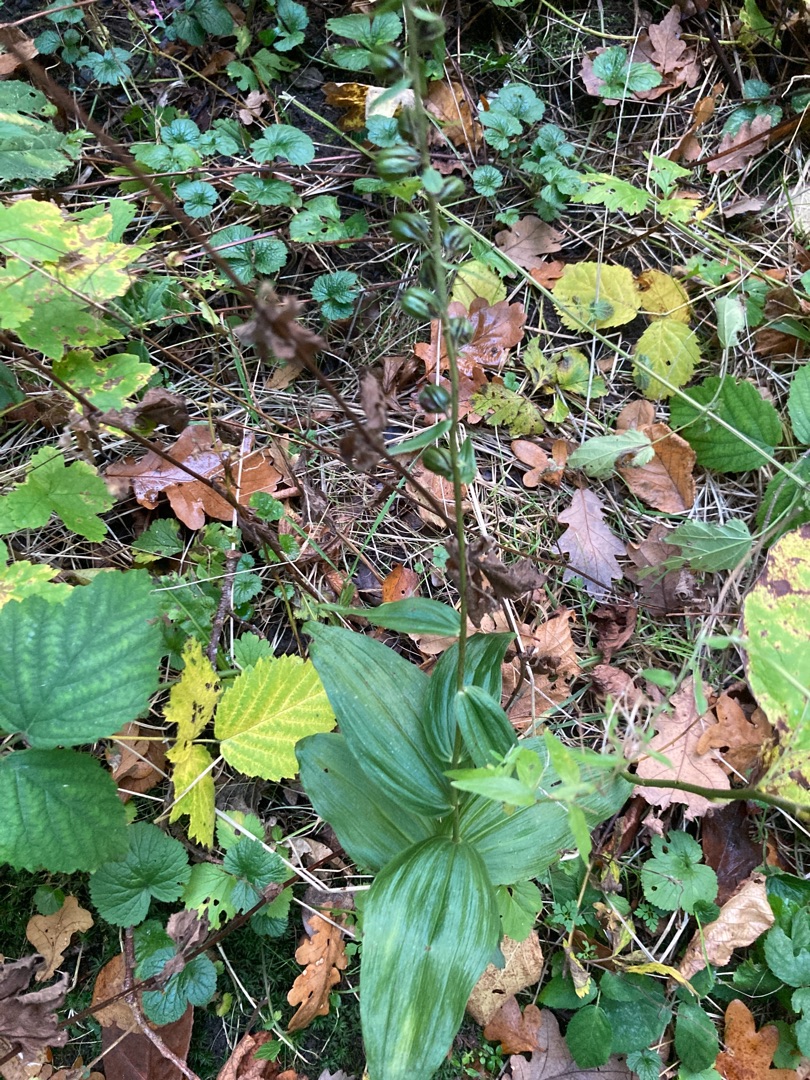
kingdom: Plantae
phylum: Tracheophyta
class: Liliopsida
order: Asparagales
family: Orchidaceae
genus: Epipactis
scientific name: Epipactis helleborine
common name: Skov-hullæbe
